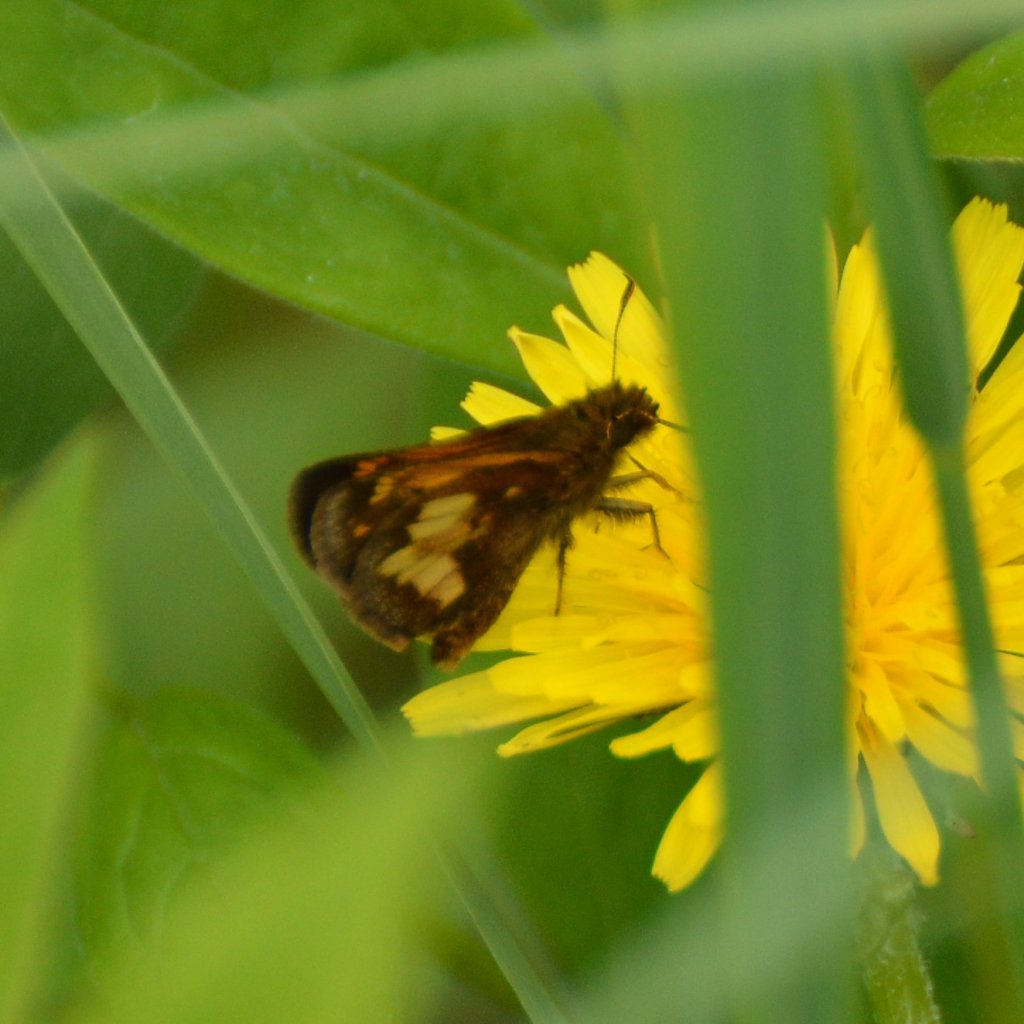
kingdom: Animalia
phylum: Arthropoda
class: Insecta
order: Lepidoptera
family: Hesperiidae
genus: Lon
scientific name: Lon hobomok
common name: Hobomok Skipper
